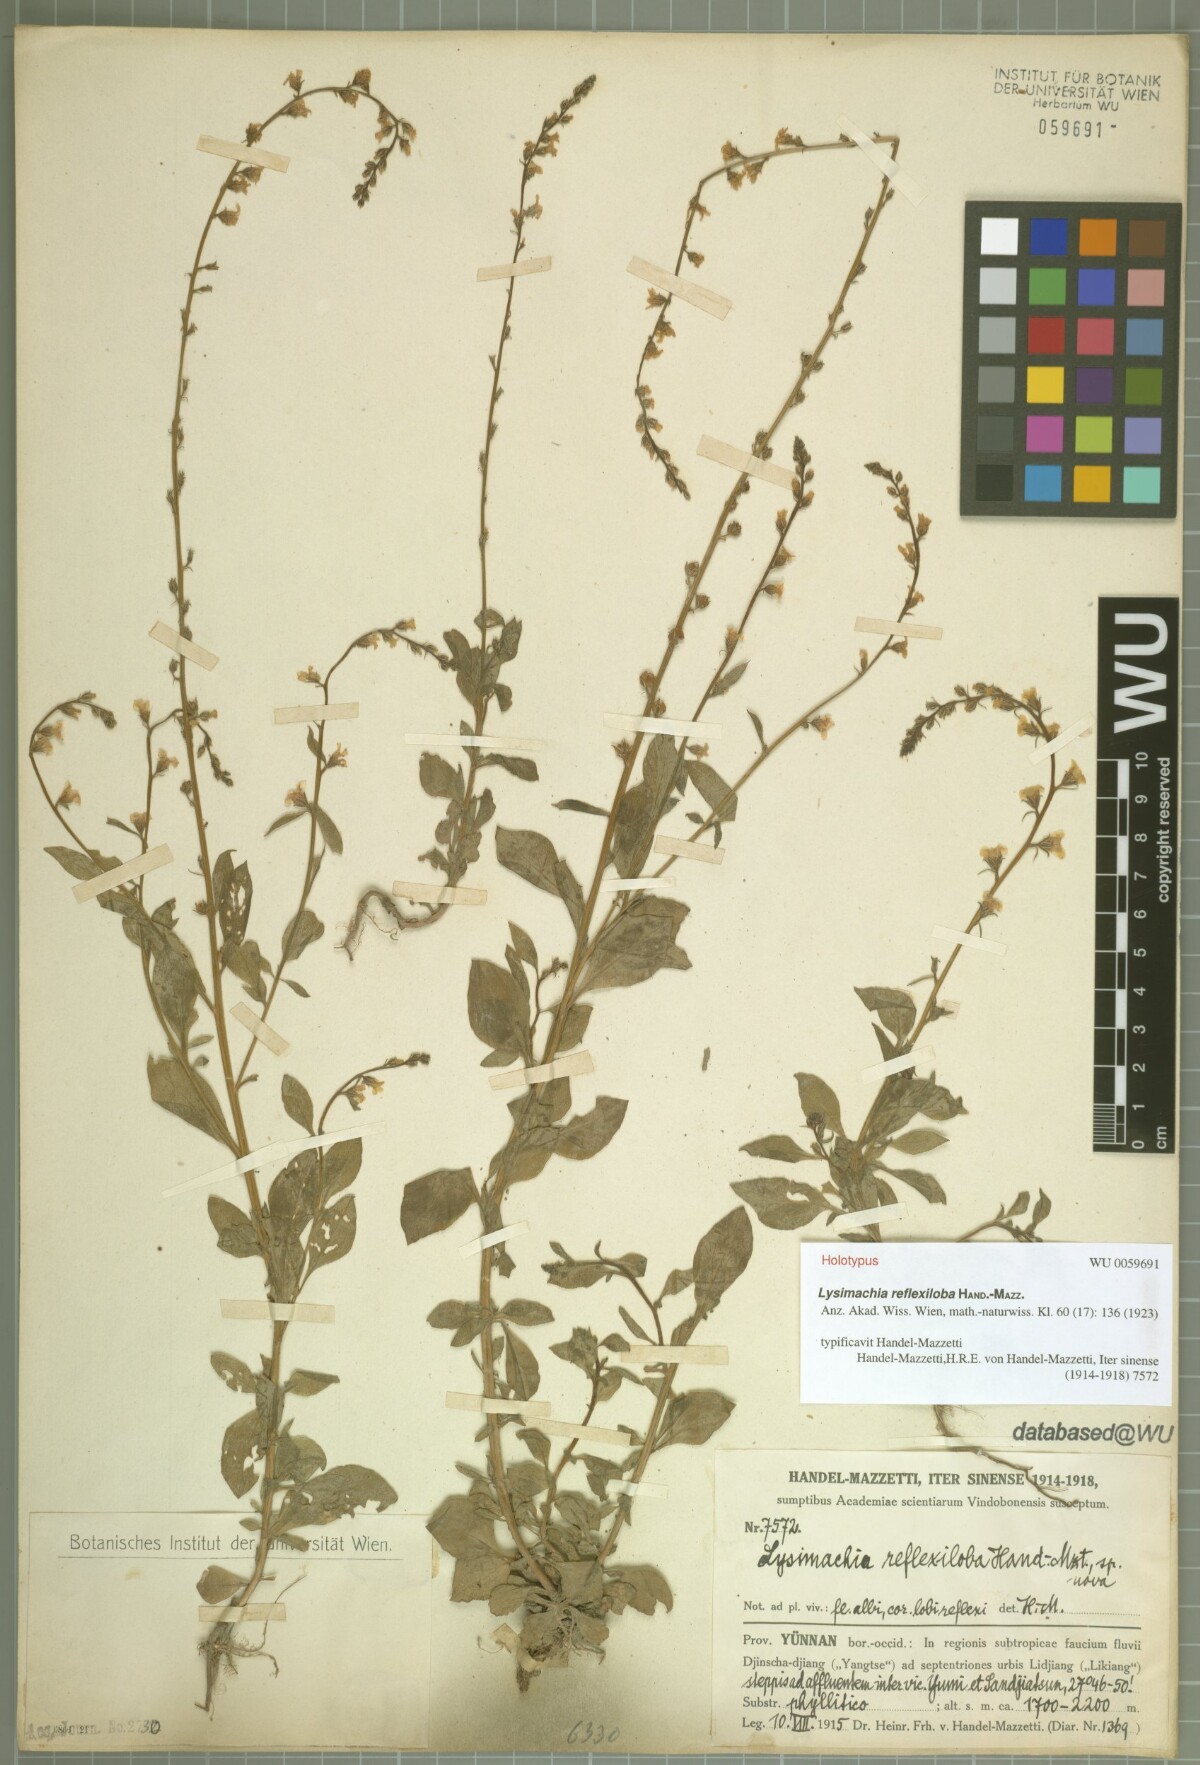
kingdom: Plantae
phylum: Tracheophyta
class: Magnoliopsida
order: Ericales
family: Primulaceae
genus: Lysimachia
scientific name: Lysimachia reflexiloba
